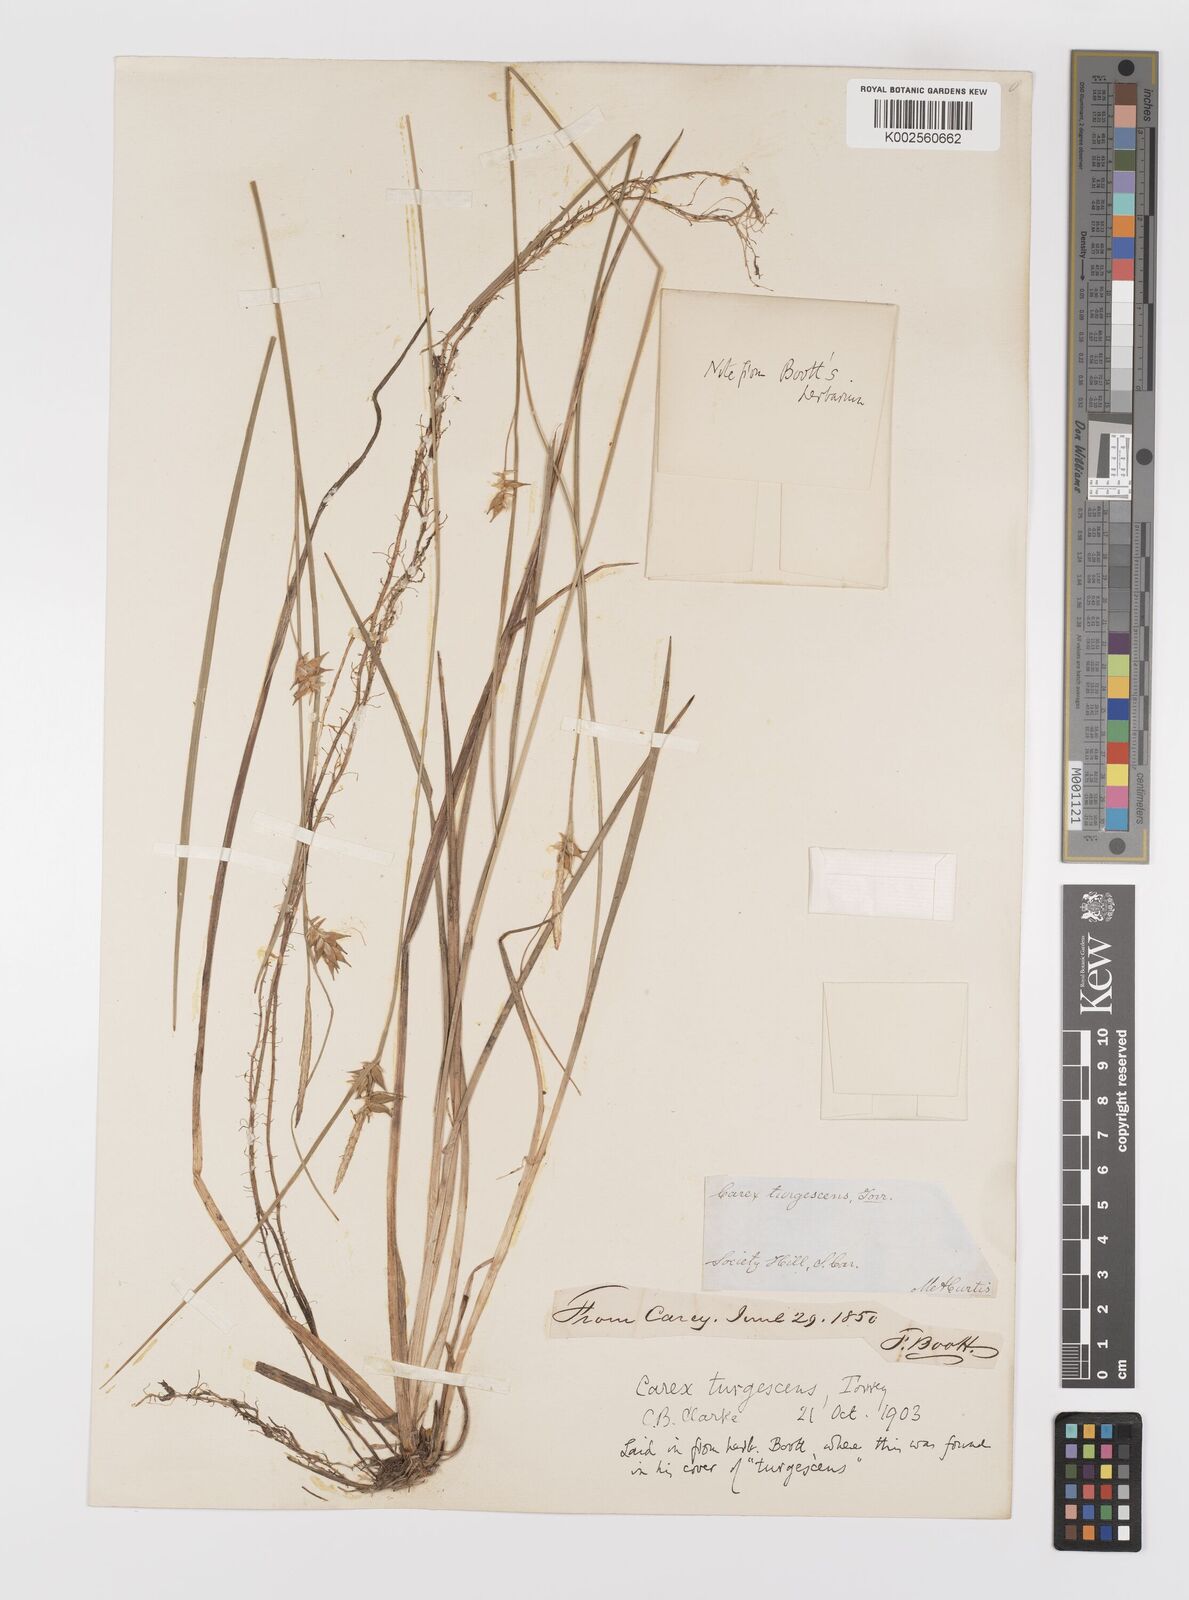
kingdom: Plantae
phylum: Tracheophyta
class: Liliopsida
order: Poales
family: Cyperaceae
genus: Carex
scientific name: Carex turgescens
